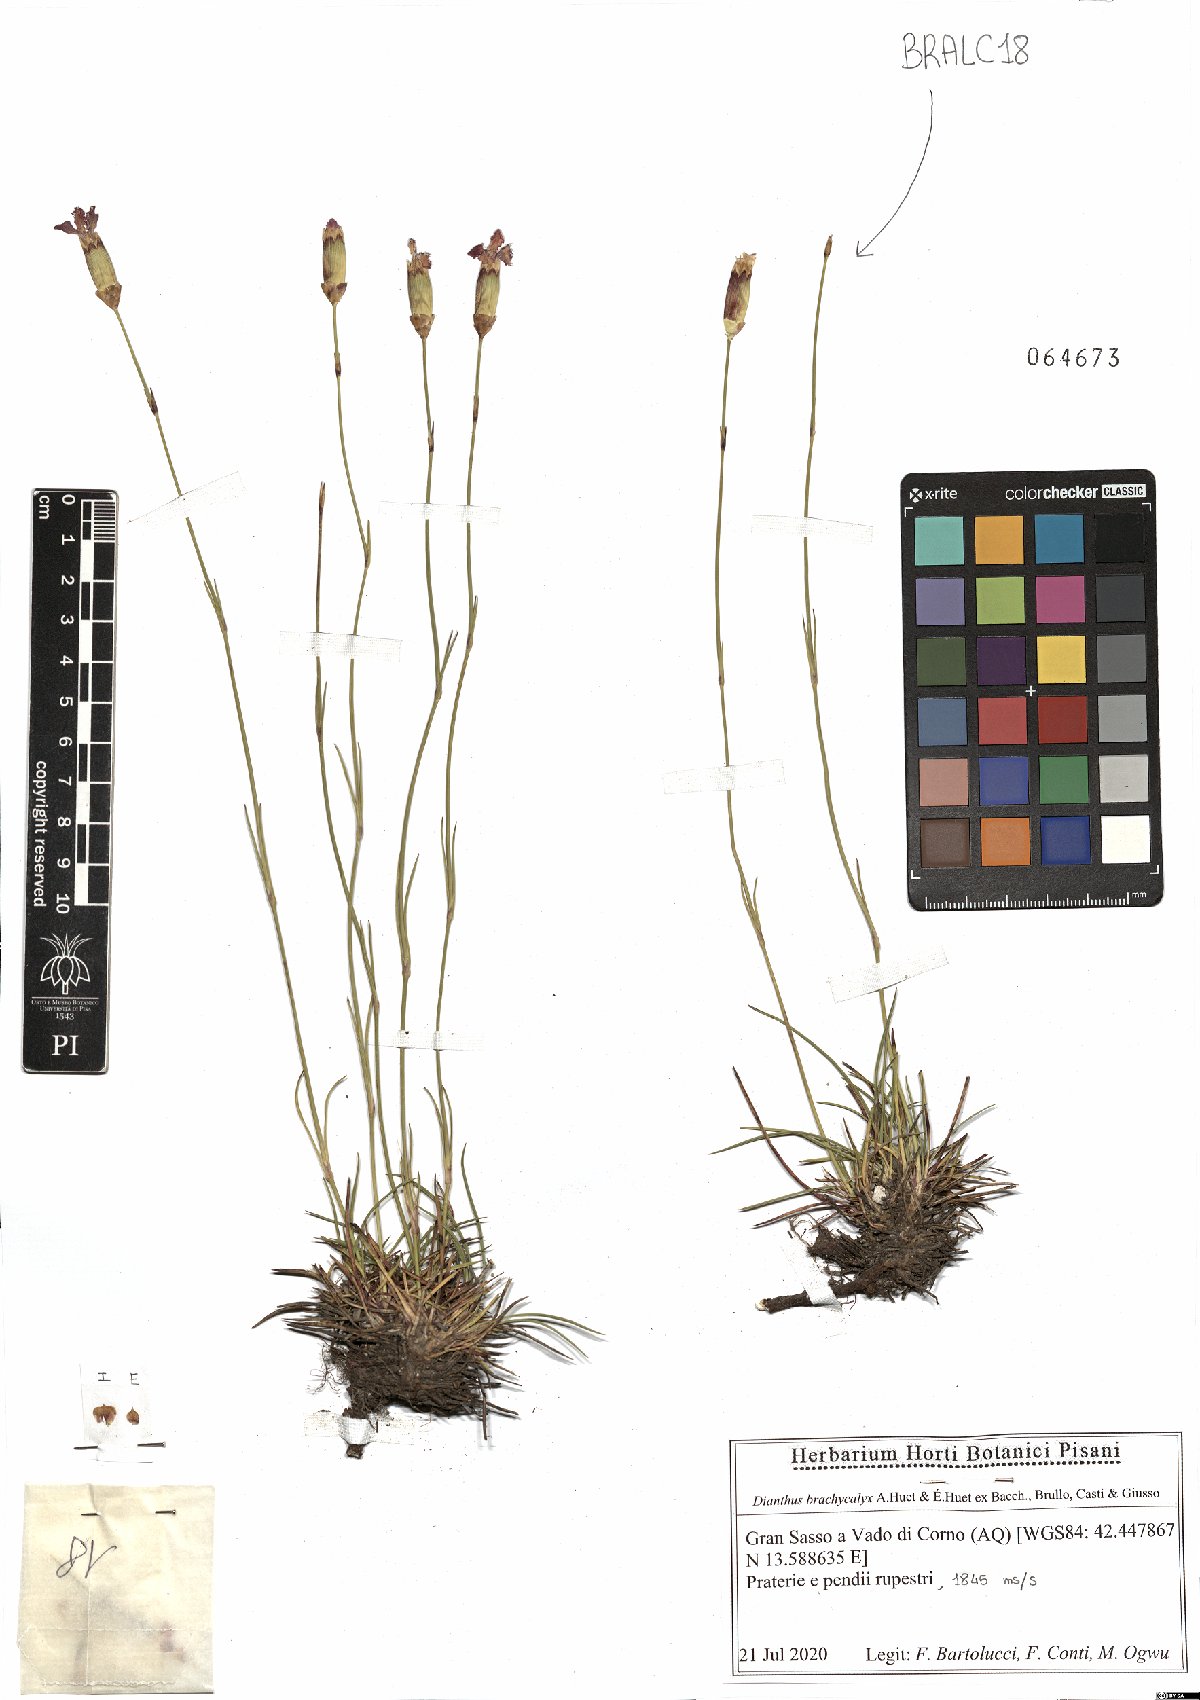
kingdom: Plantae
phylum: Tracheophyta
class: Magnoliopsida
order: Caryophyllales
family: Caryophyllaceae
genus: Dianthus
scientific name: Dianthus brachycalyx
